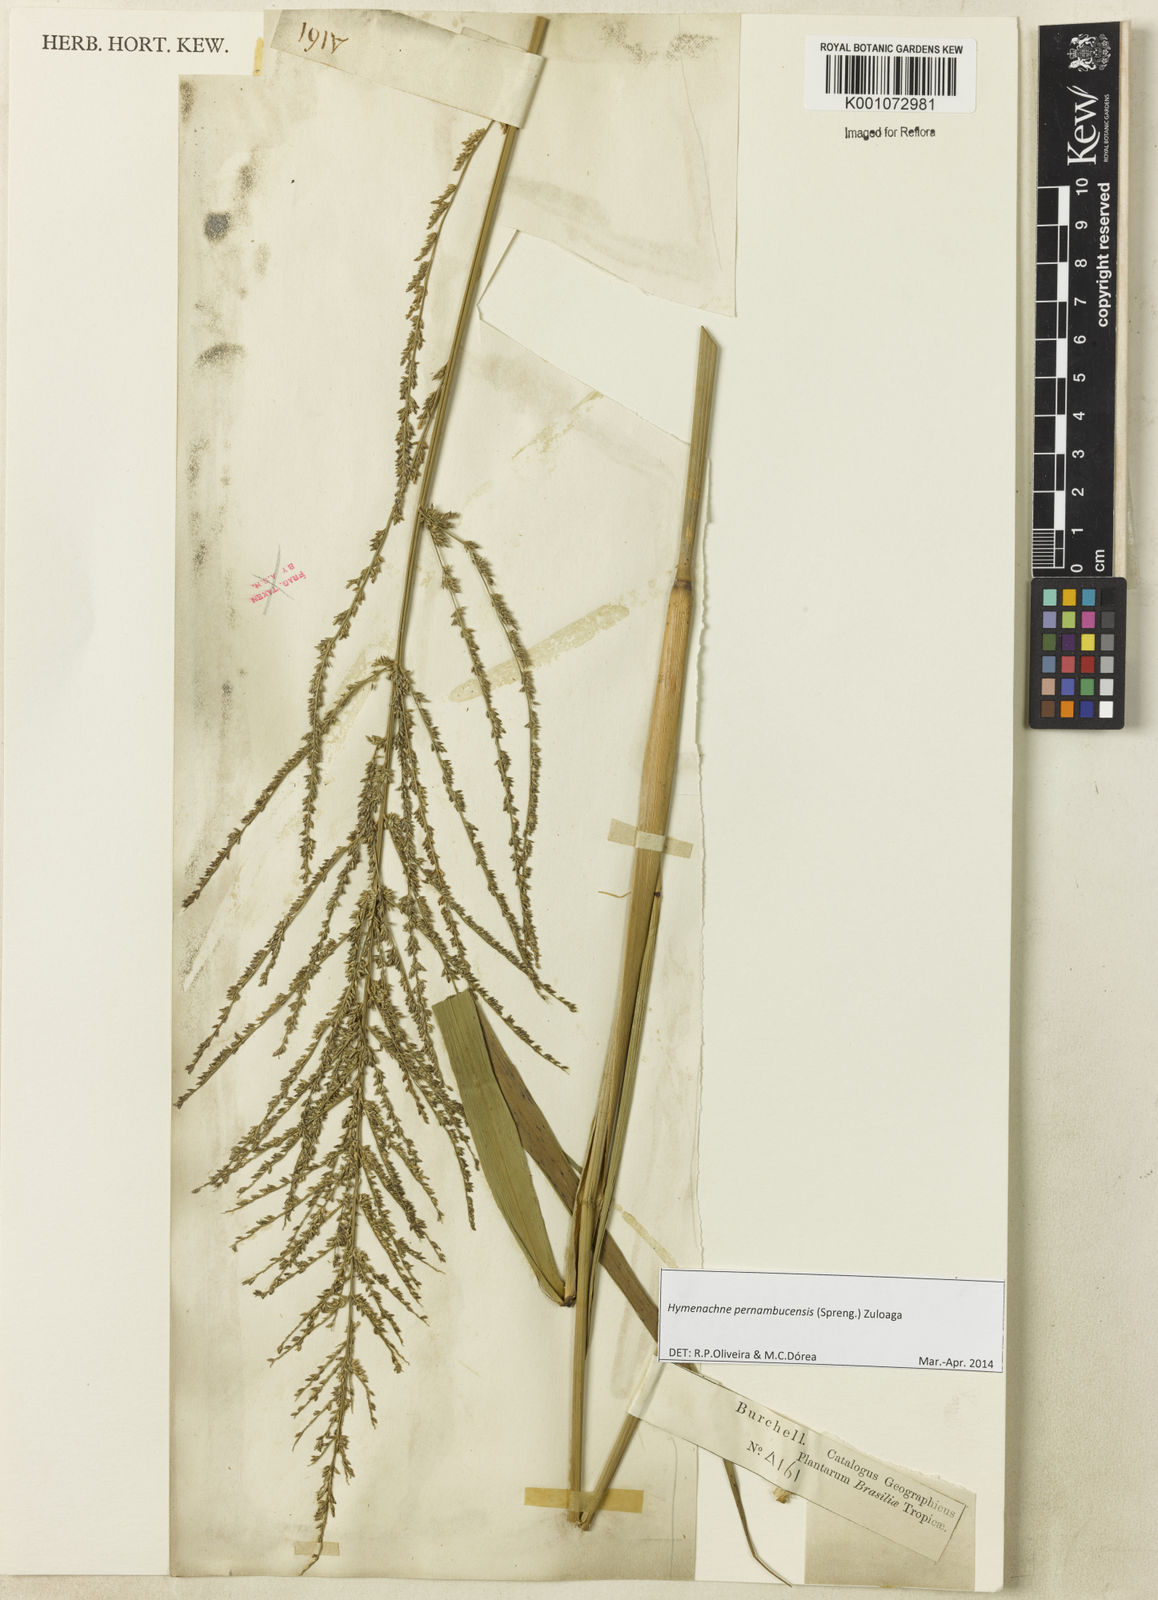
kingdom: Plantae
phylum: Tracheophyta
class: Liliopsida
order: Poales
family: Poaceae
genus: Hymenachne
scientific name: Hymenachne pernambucensis
